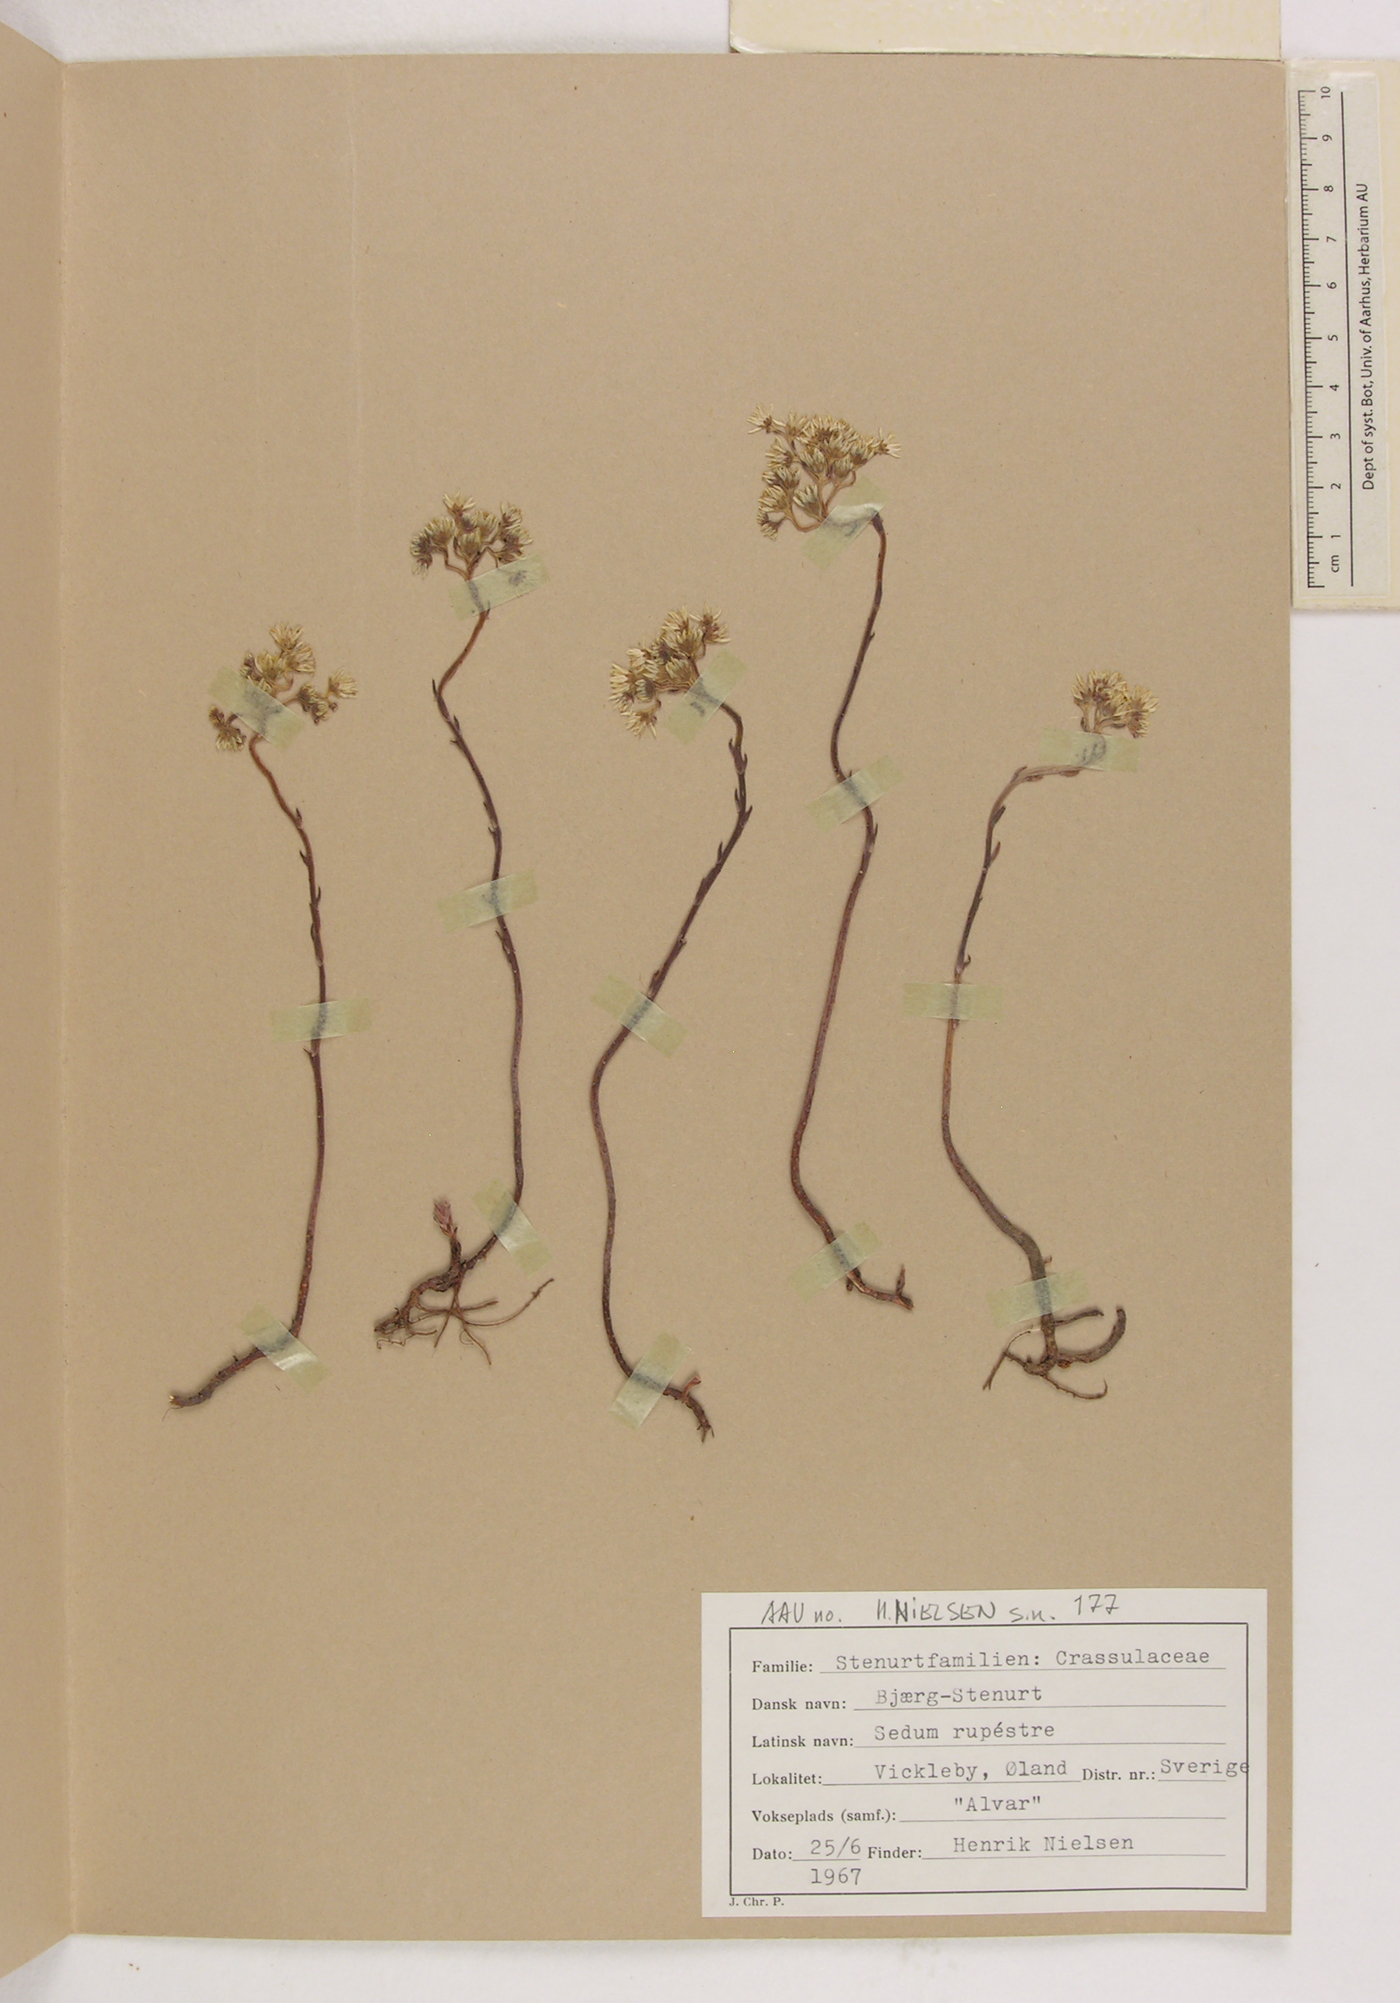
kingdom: Plantae
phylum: Tracheophyta
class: Magnoliopsida
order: Saxifragales
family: Crassulaceae
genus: Petrosedum
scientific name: Petrosedum rupestre
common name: Jenny's stonecrop
